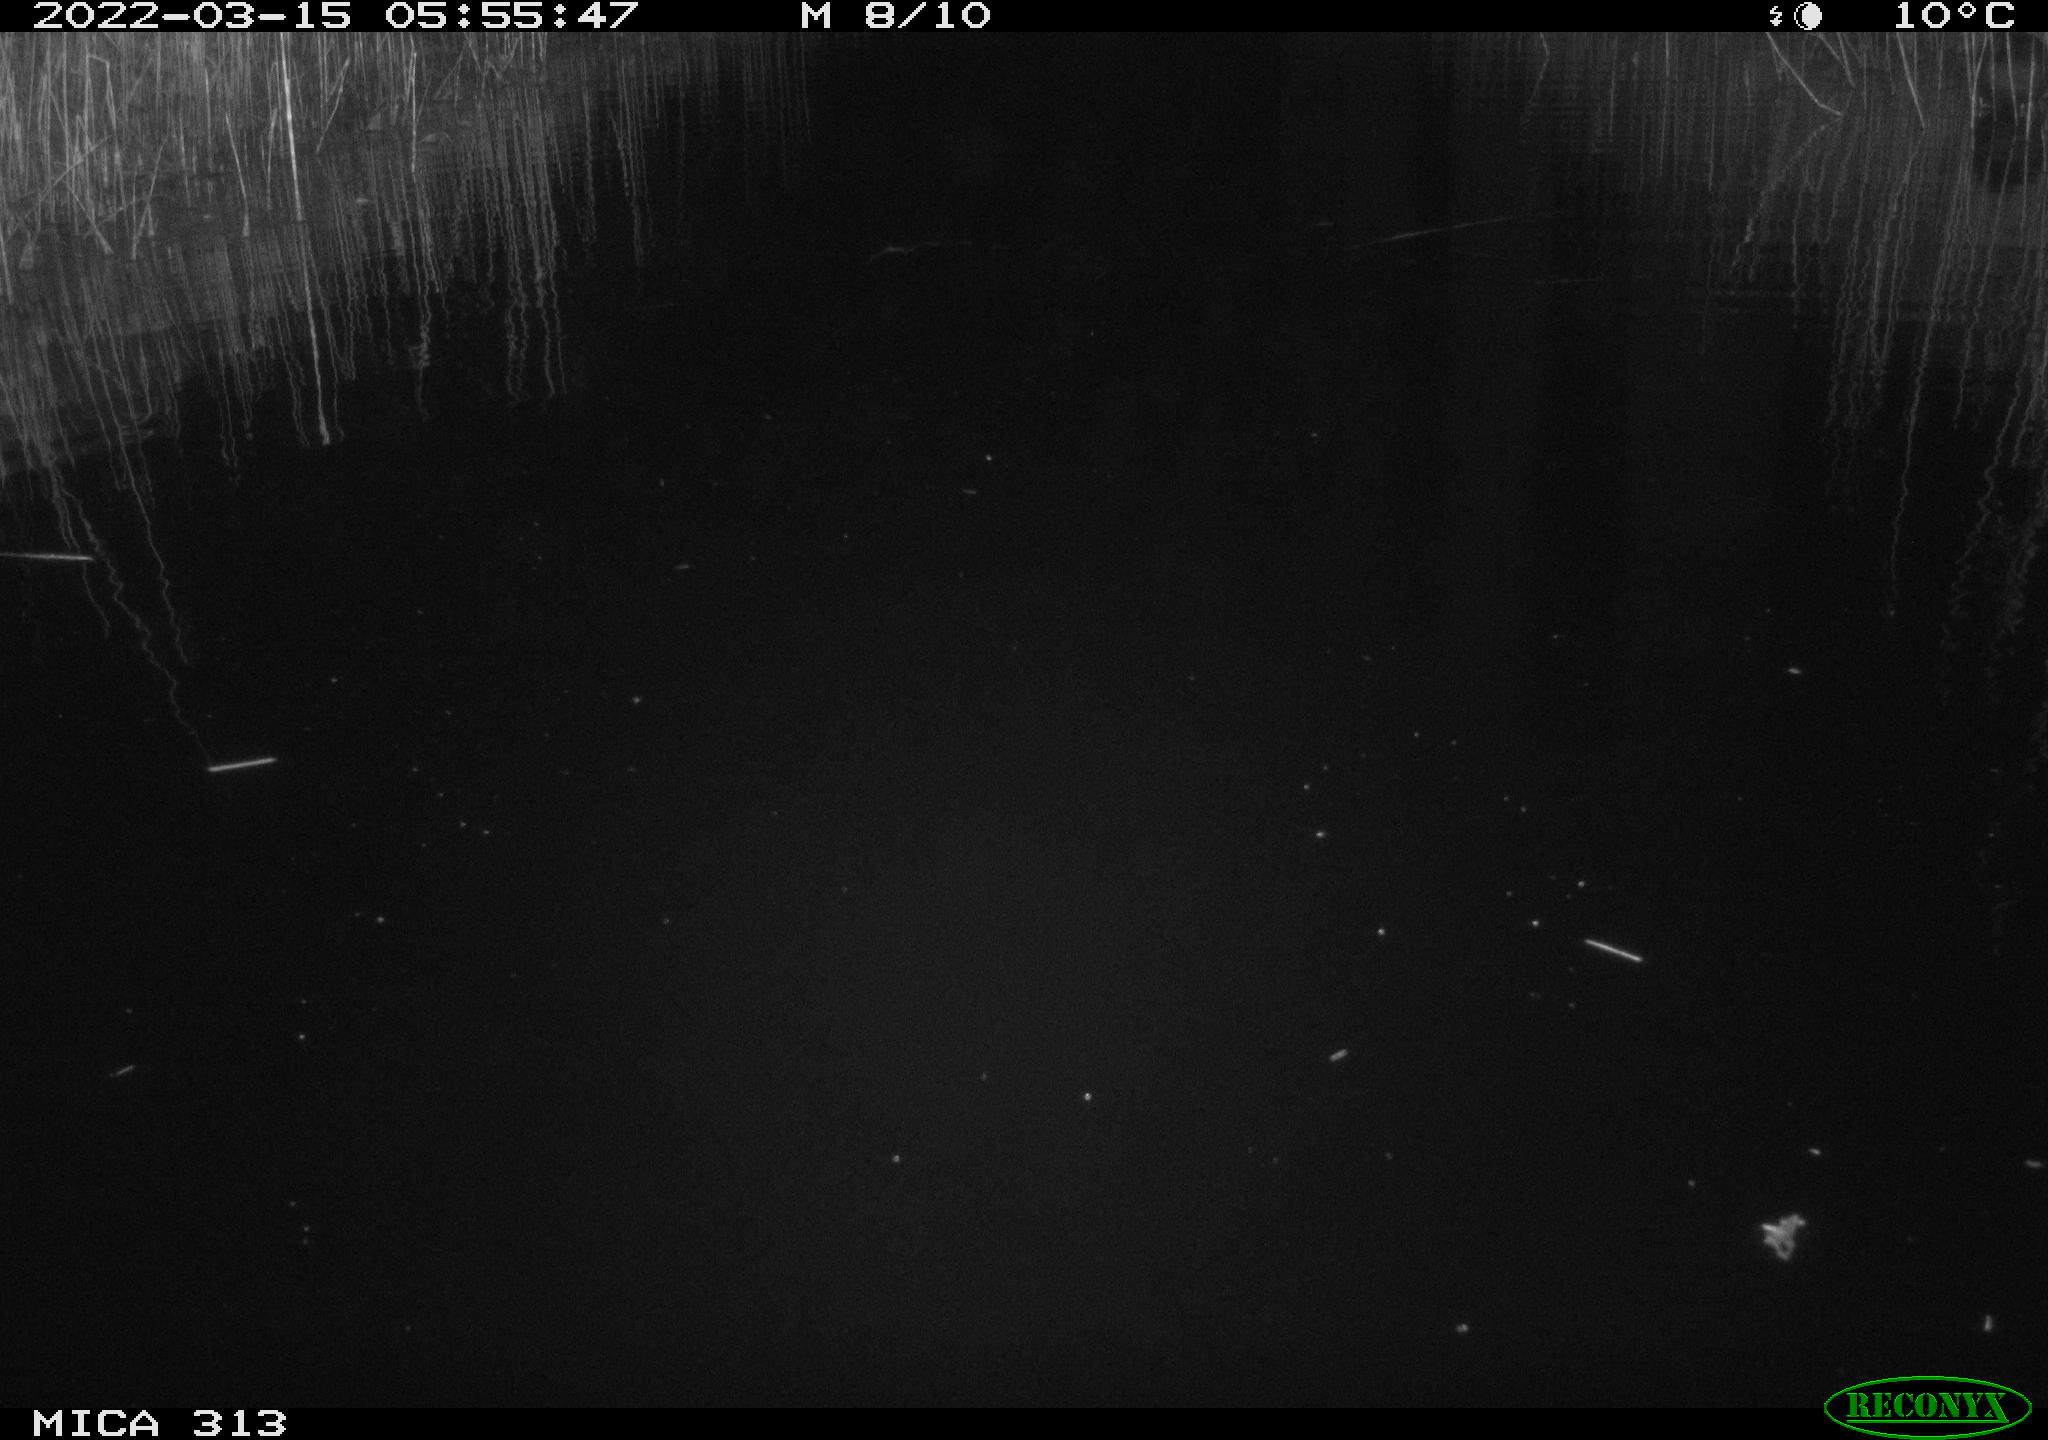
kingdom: Animalia
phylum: Chordata
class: Aves
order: Anseriformes
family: Anatidae
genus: Anas
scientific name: Anas platyrhynchos
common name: Mallard
